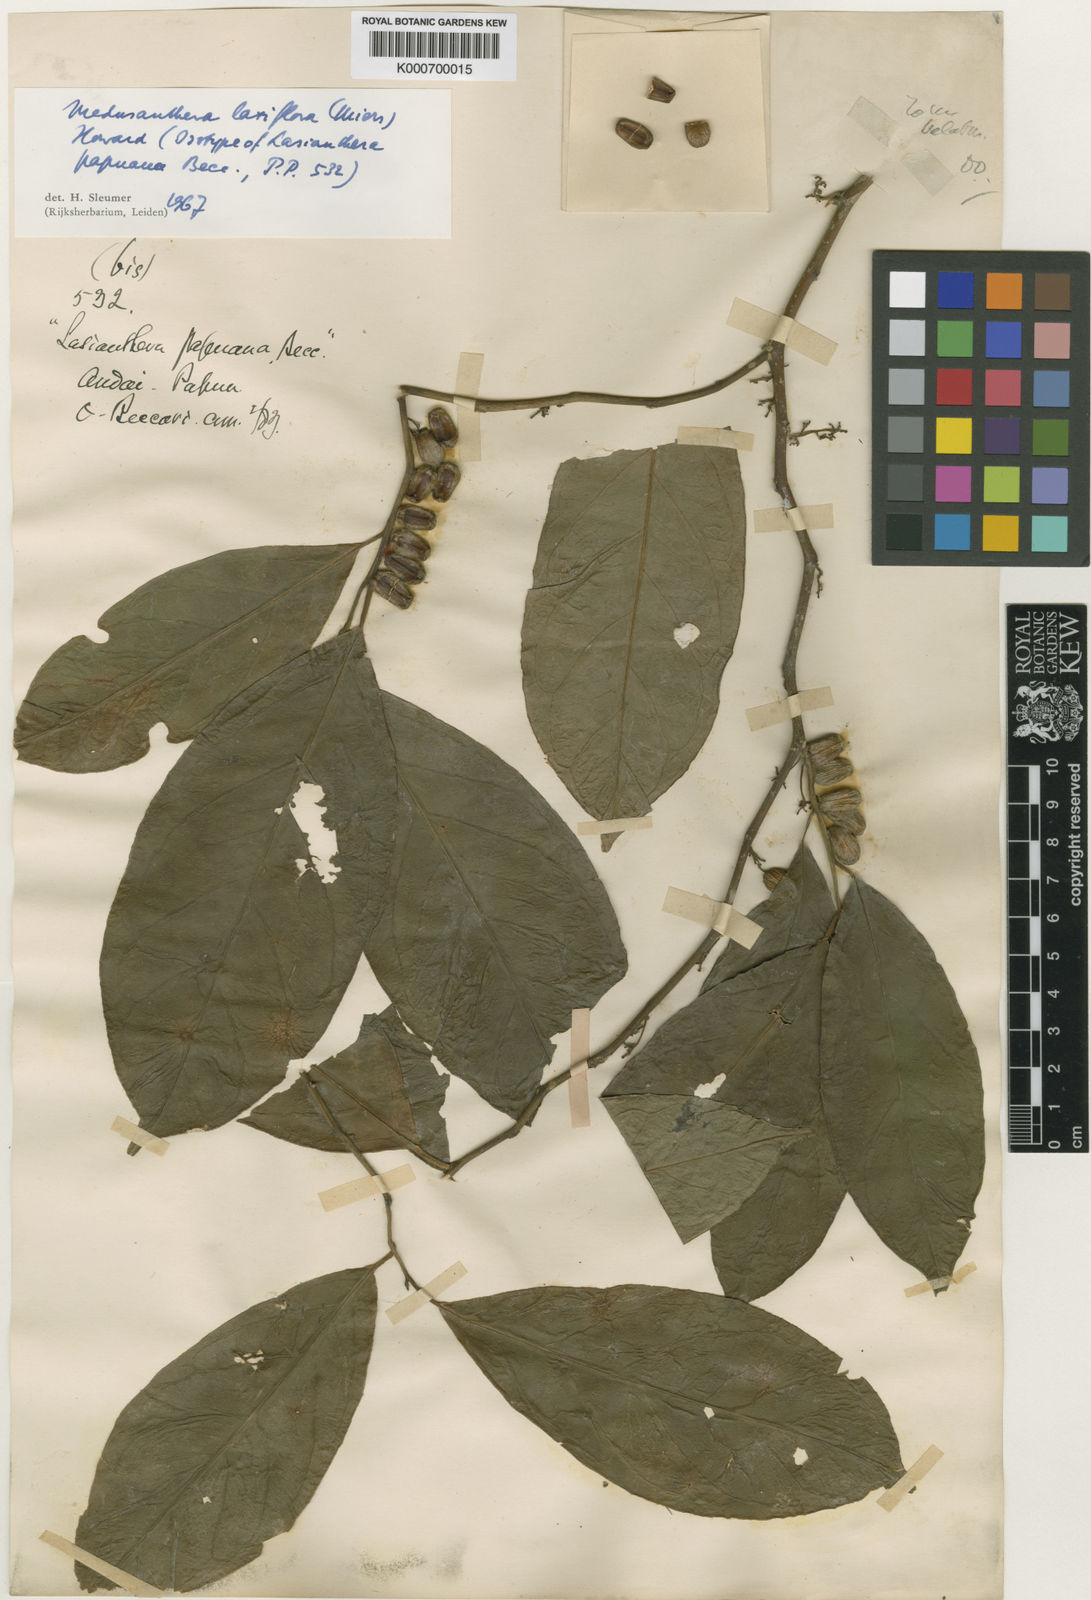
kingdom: Plantae
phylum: Tracheophyta
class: Magnoliopsida
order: Cardiopteridales
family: Stemonuraceae
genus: Medusanthera
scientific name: Medusanthera laxiflora
